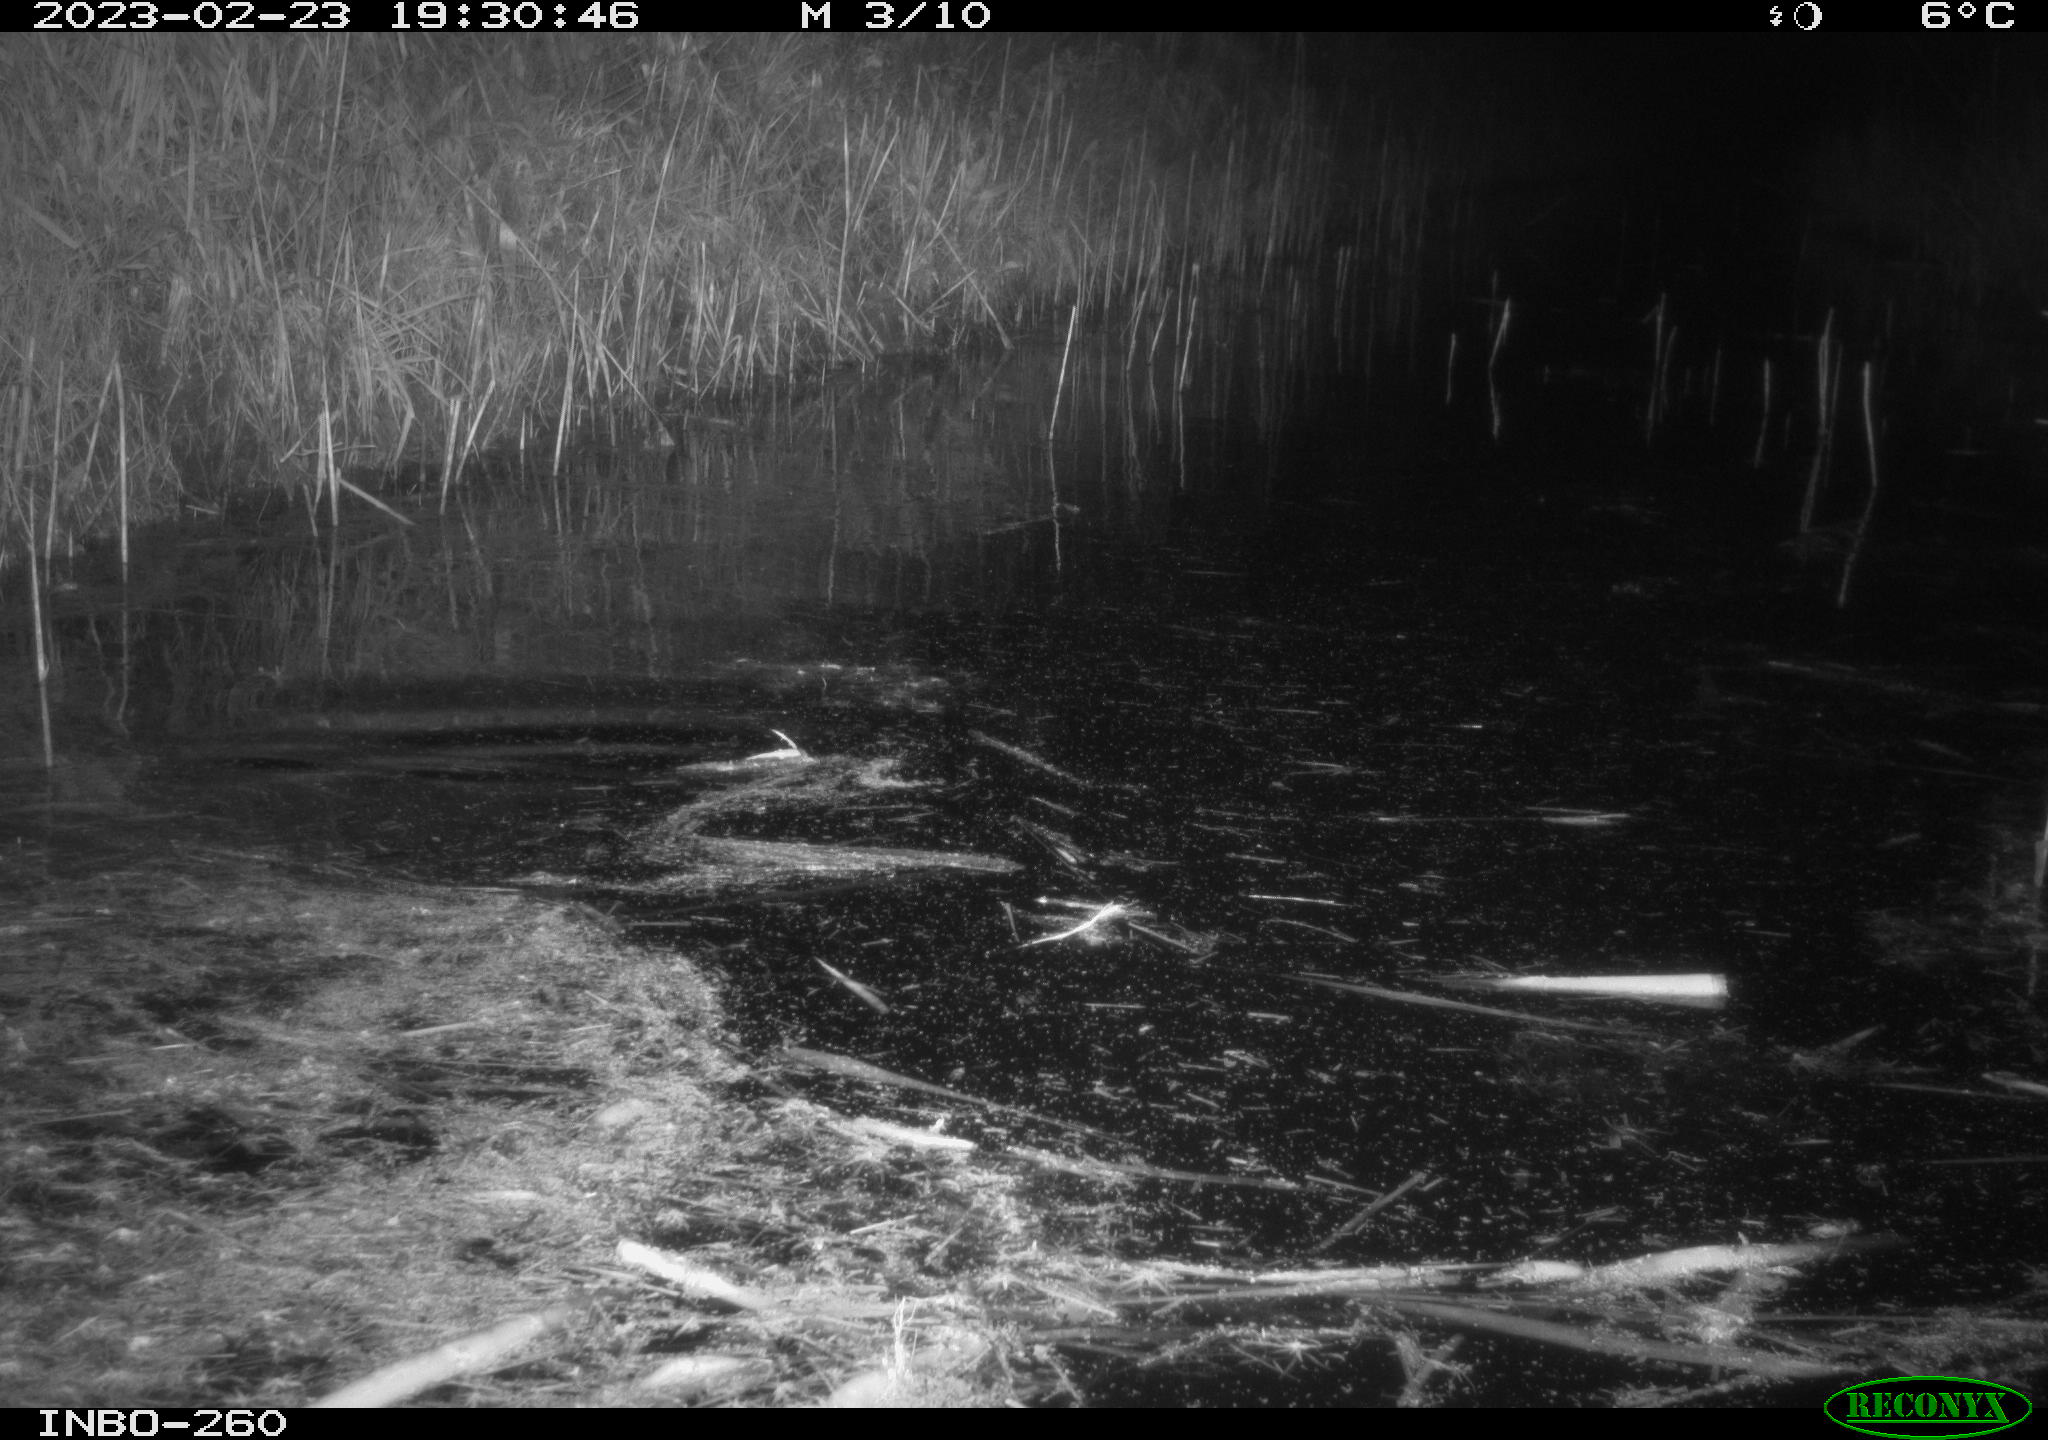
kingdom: Animalia
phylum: Chordata
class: Mammalia
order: Rodentia
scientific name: Rodentia
